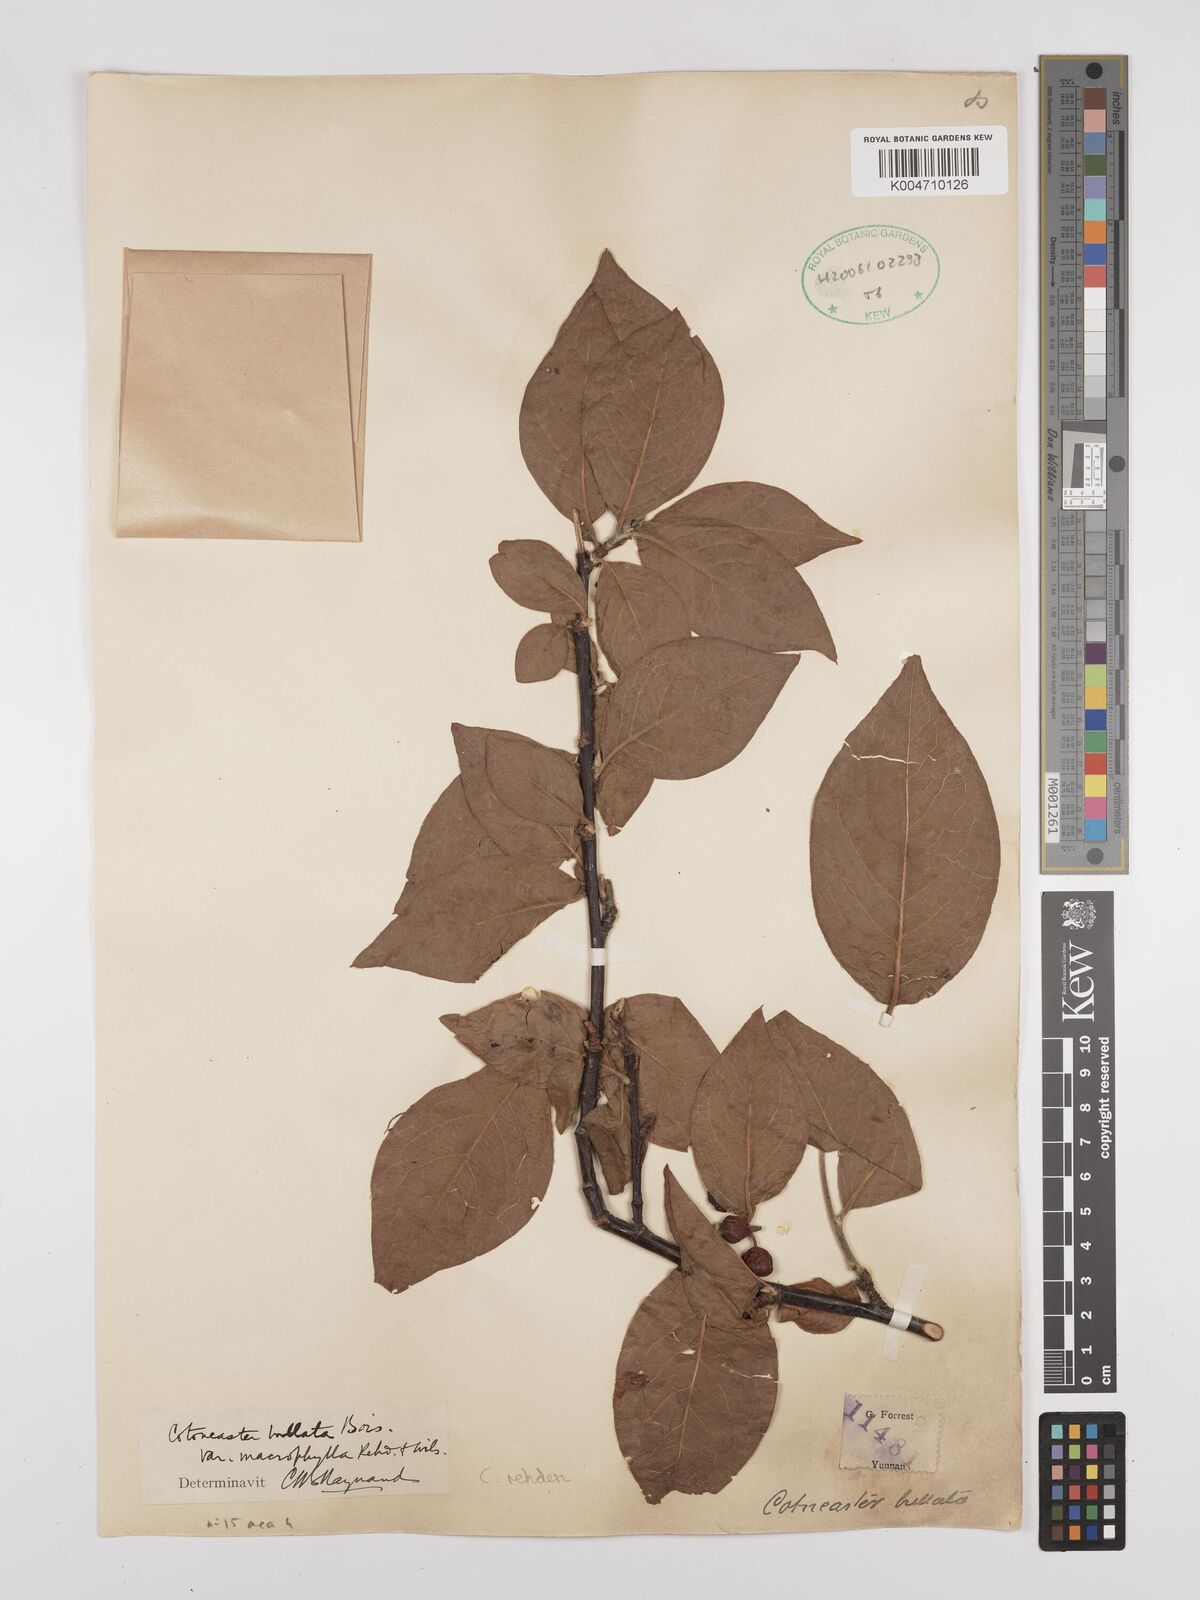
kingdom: Plantae
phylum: Tracheophyta
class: Magnoliopsida
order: Rosales
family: Rosaceae
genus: Cotoneaster
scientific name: Cotoneaster bullatus
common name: Hollyberry cotoneaster
